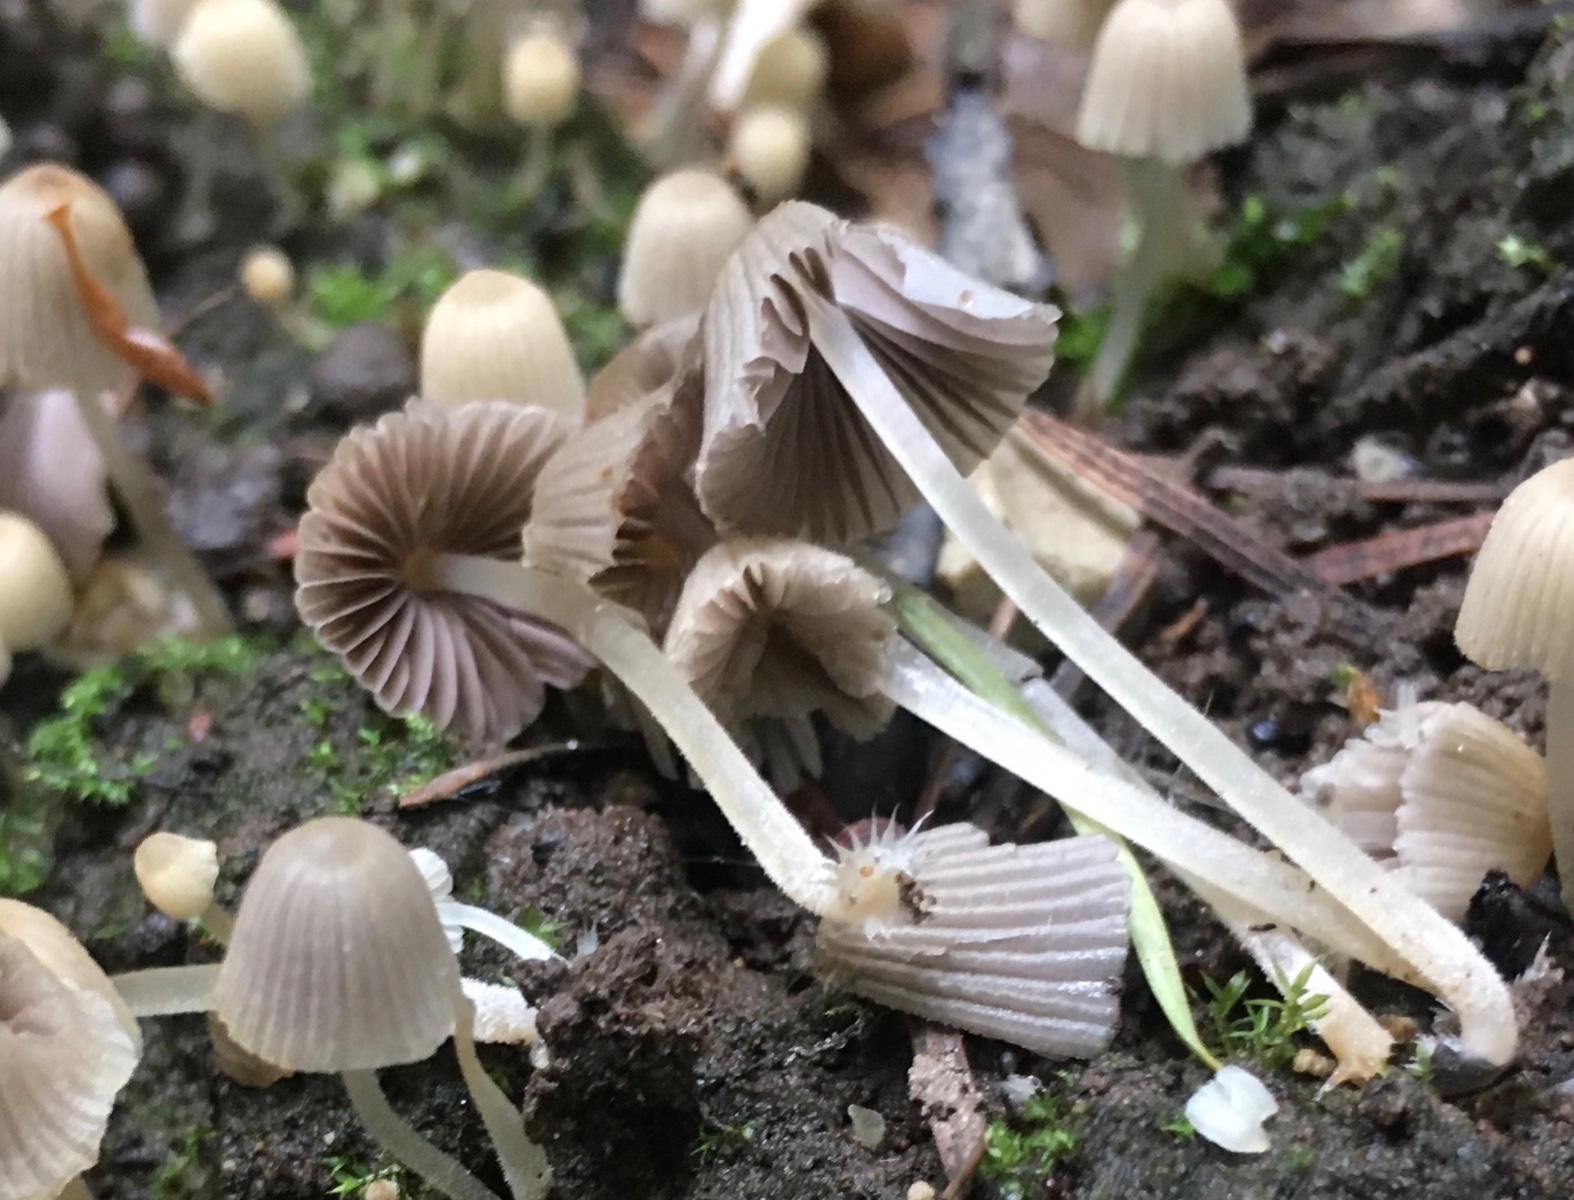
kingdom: Fungi
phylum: Basidiomycota
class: Agaricomycetes
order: Agaricales
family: Psathyrellaceae
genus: Coprinellus
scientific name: Coprinellus disseminatus
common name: bredsået blækhat
